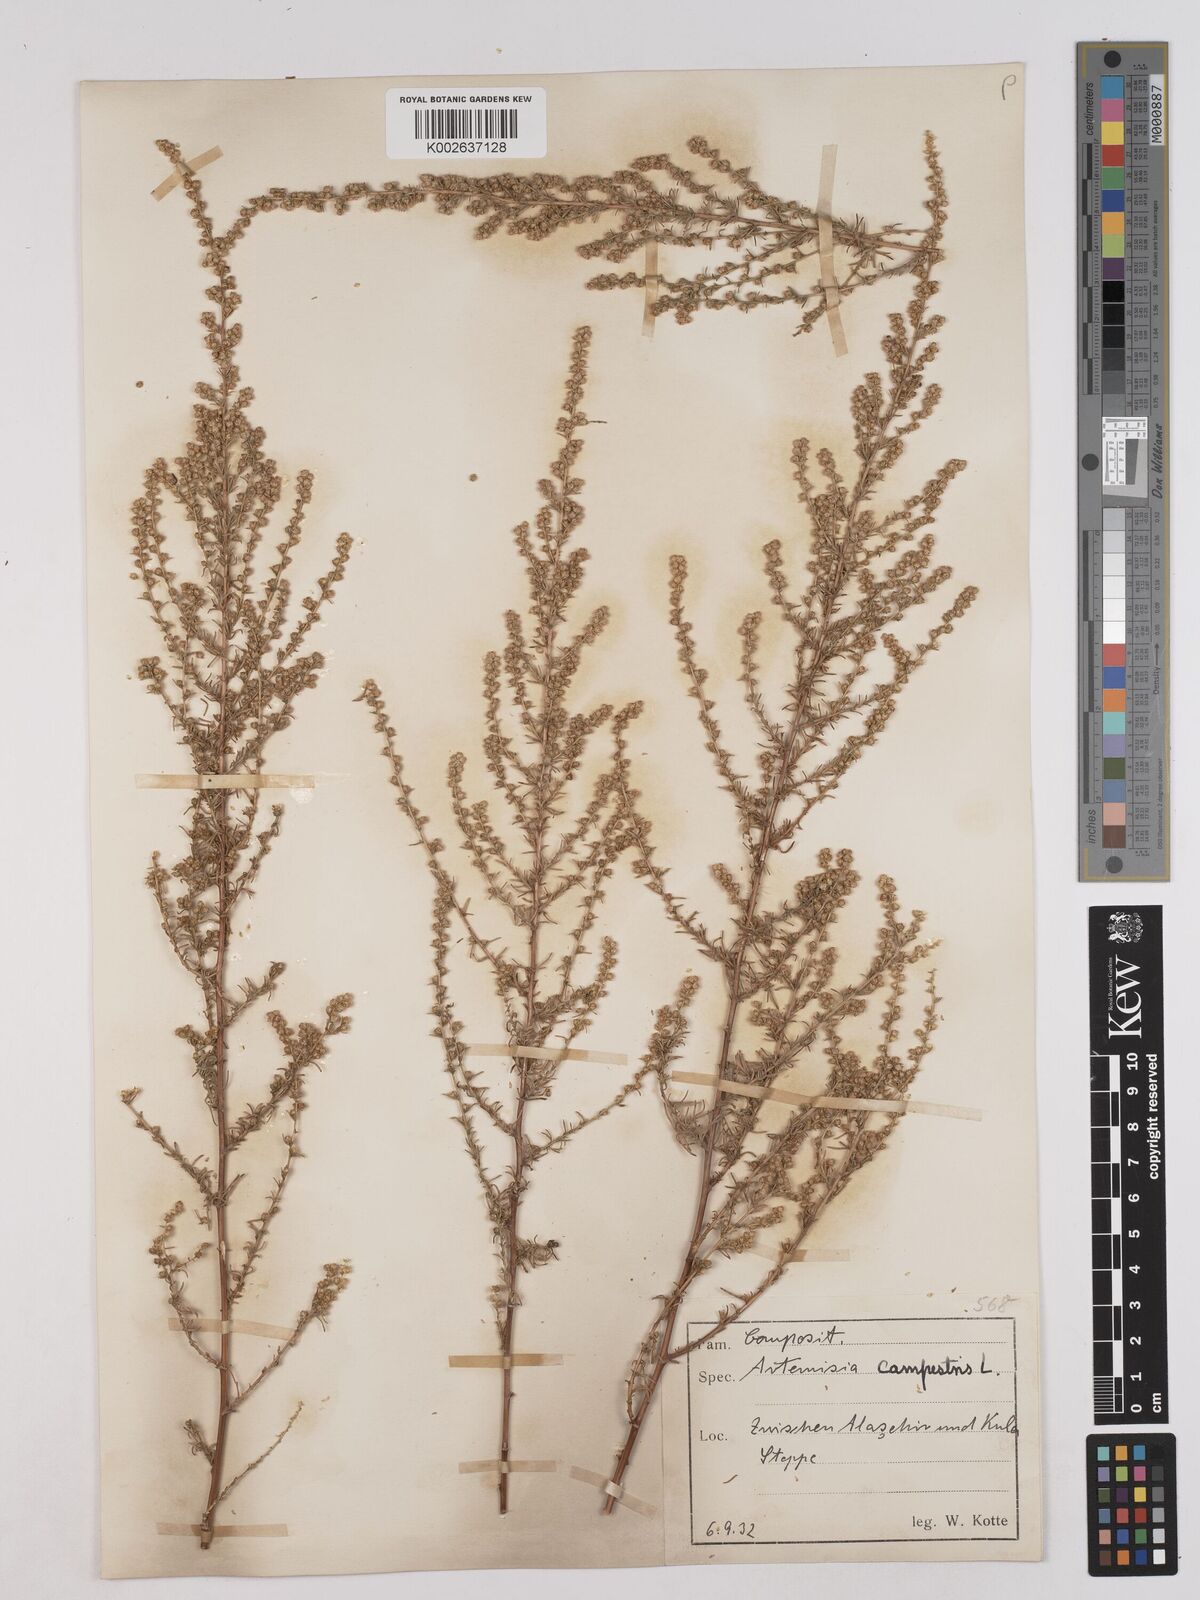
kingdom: Plantae
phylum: Tracheophyta
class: Magnoliopsida
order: Asterales
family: Asteraceae
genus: Artemisia
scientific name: Artemisia campestris
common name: Field wormwood
